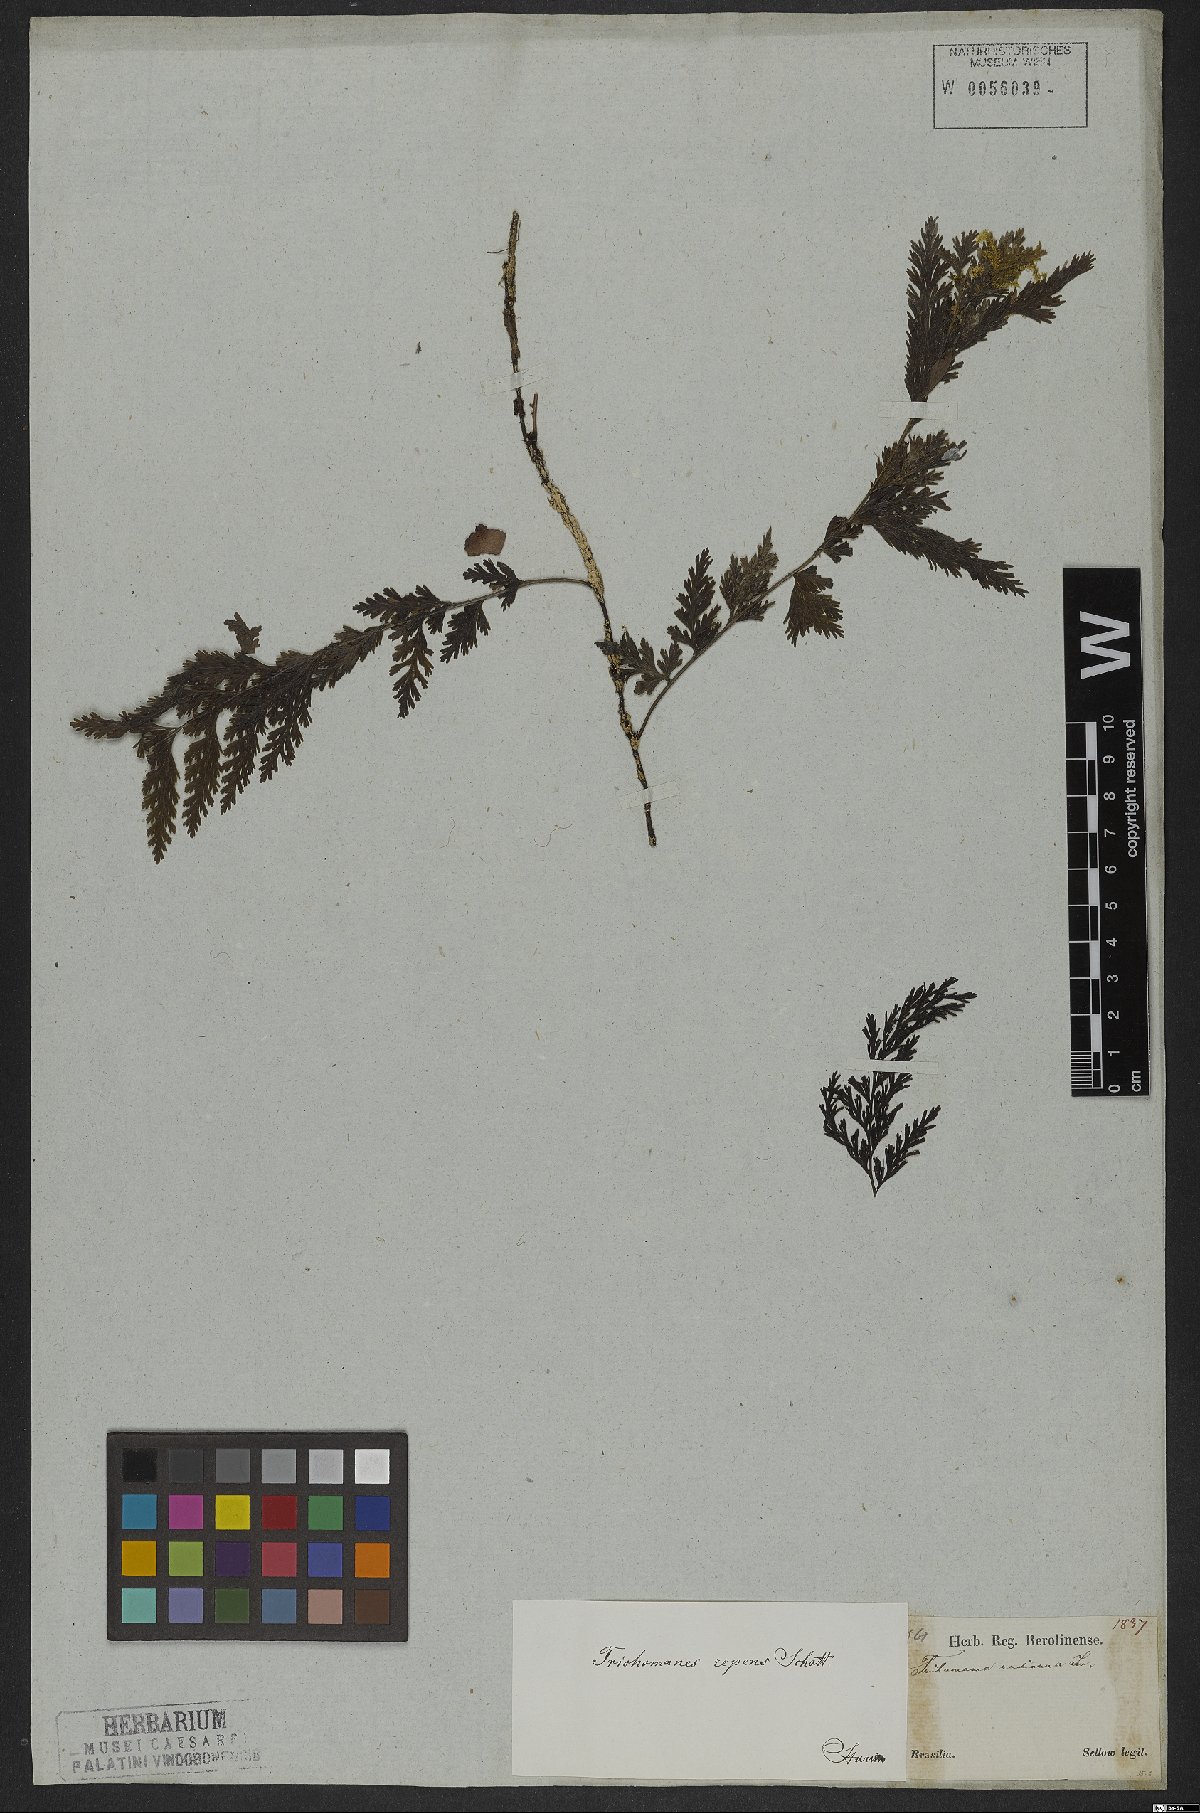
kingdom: Plantae
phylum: Tracheophyta
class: Polypodiopsida
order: Hymenophyllales
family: Hymenophyllaceae
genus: Vandenboschia
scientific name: Vandenboschia radicans
